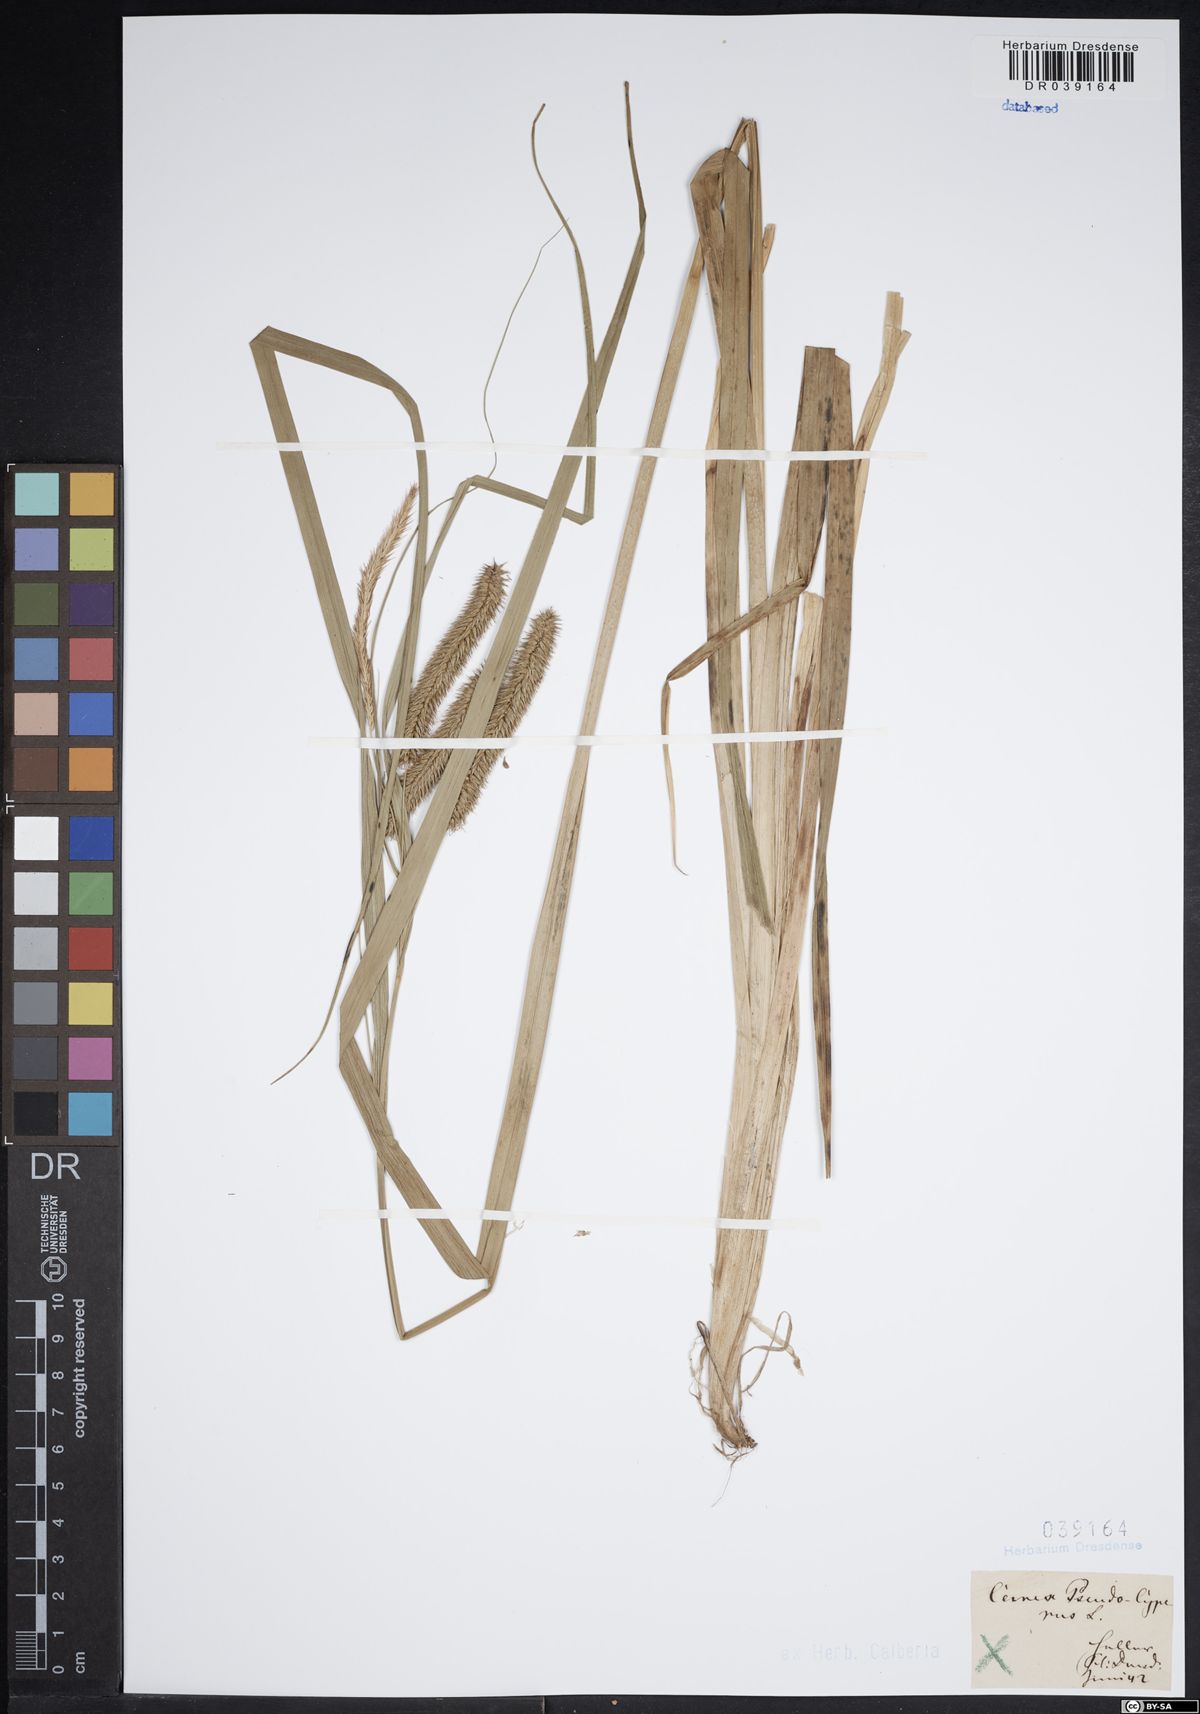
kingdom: Plantae
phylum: Tracheophyta
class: Liliopsida
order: Poales
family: Cyperaceae
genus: Carex
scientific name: Carex pseudocyperus
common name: Cyperus sedge
